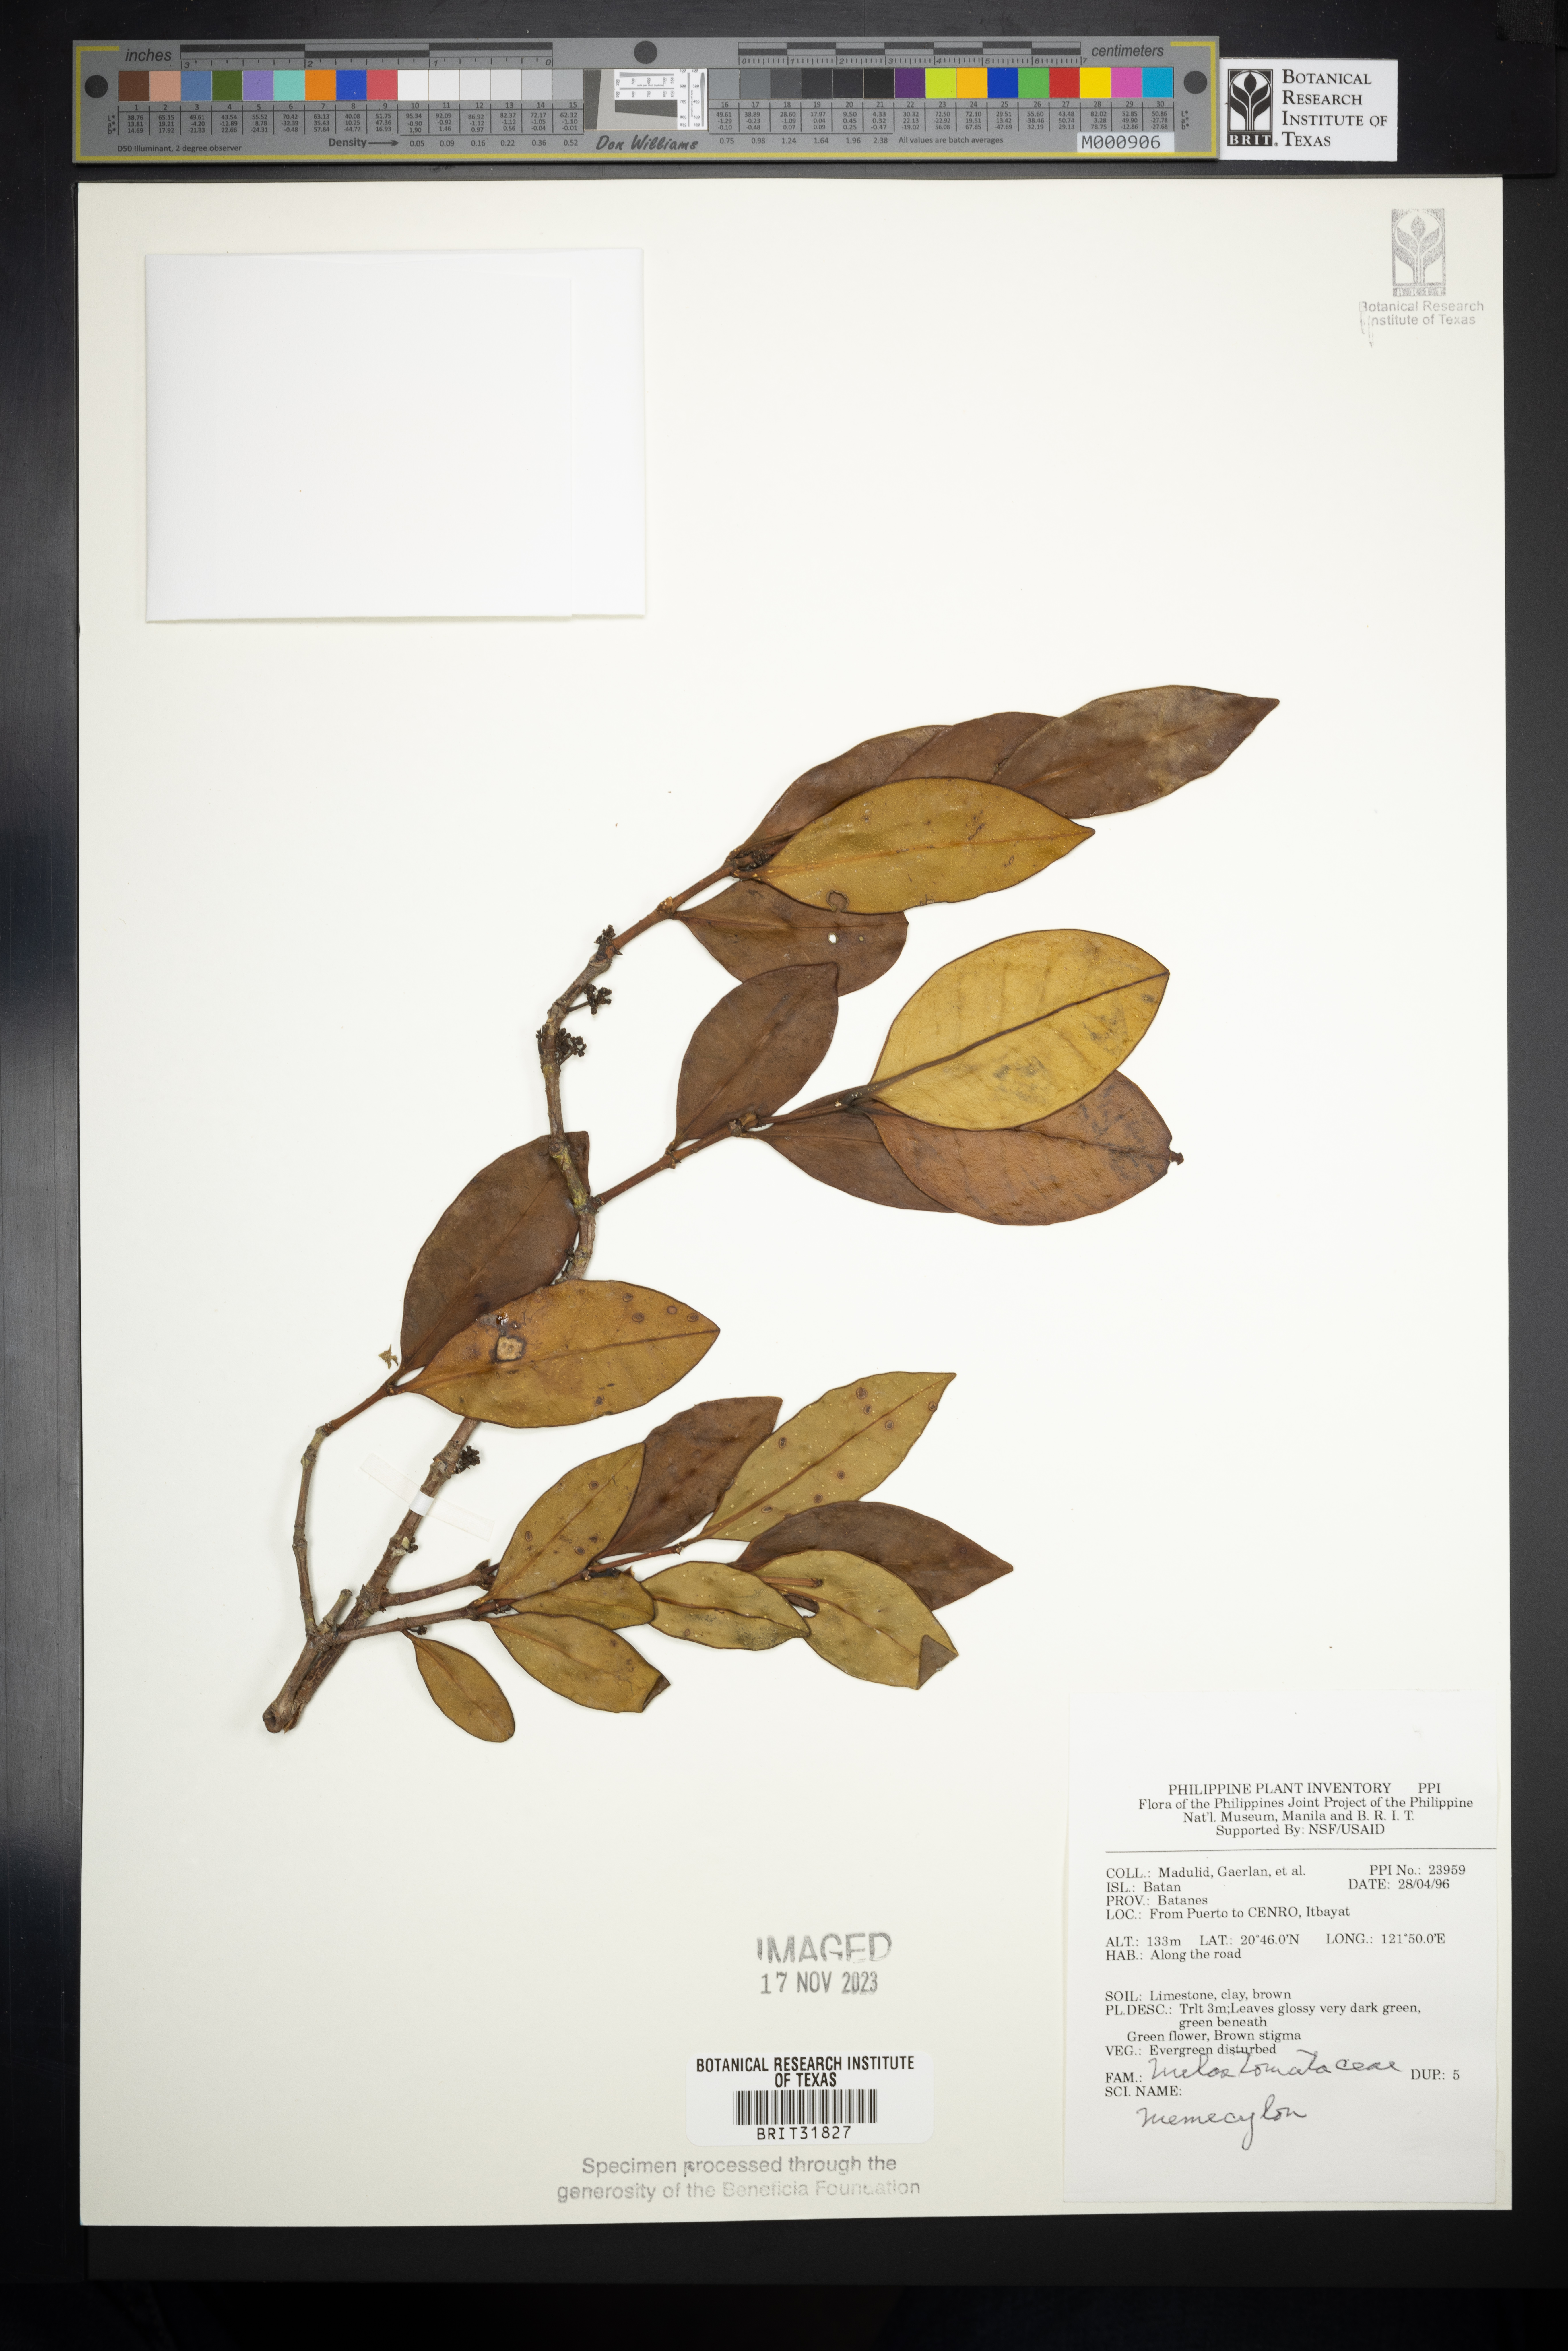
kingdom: Plantae
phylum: Tracheophyta
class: Magnoliopsida
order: Myrtales
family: Melastomataceae
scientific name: Melastomataceae
